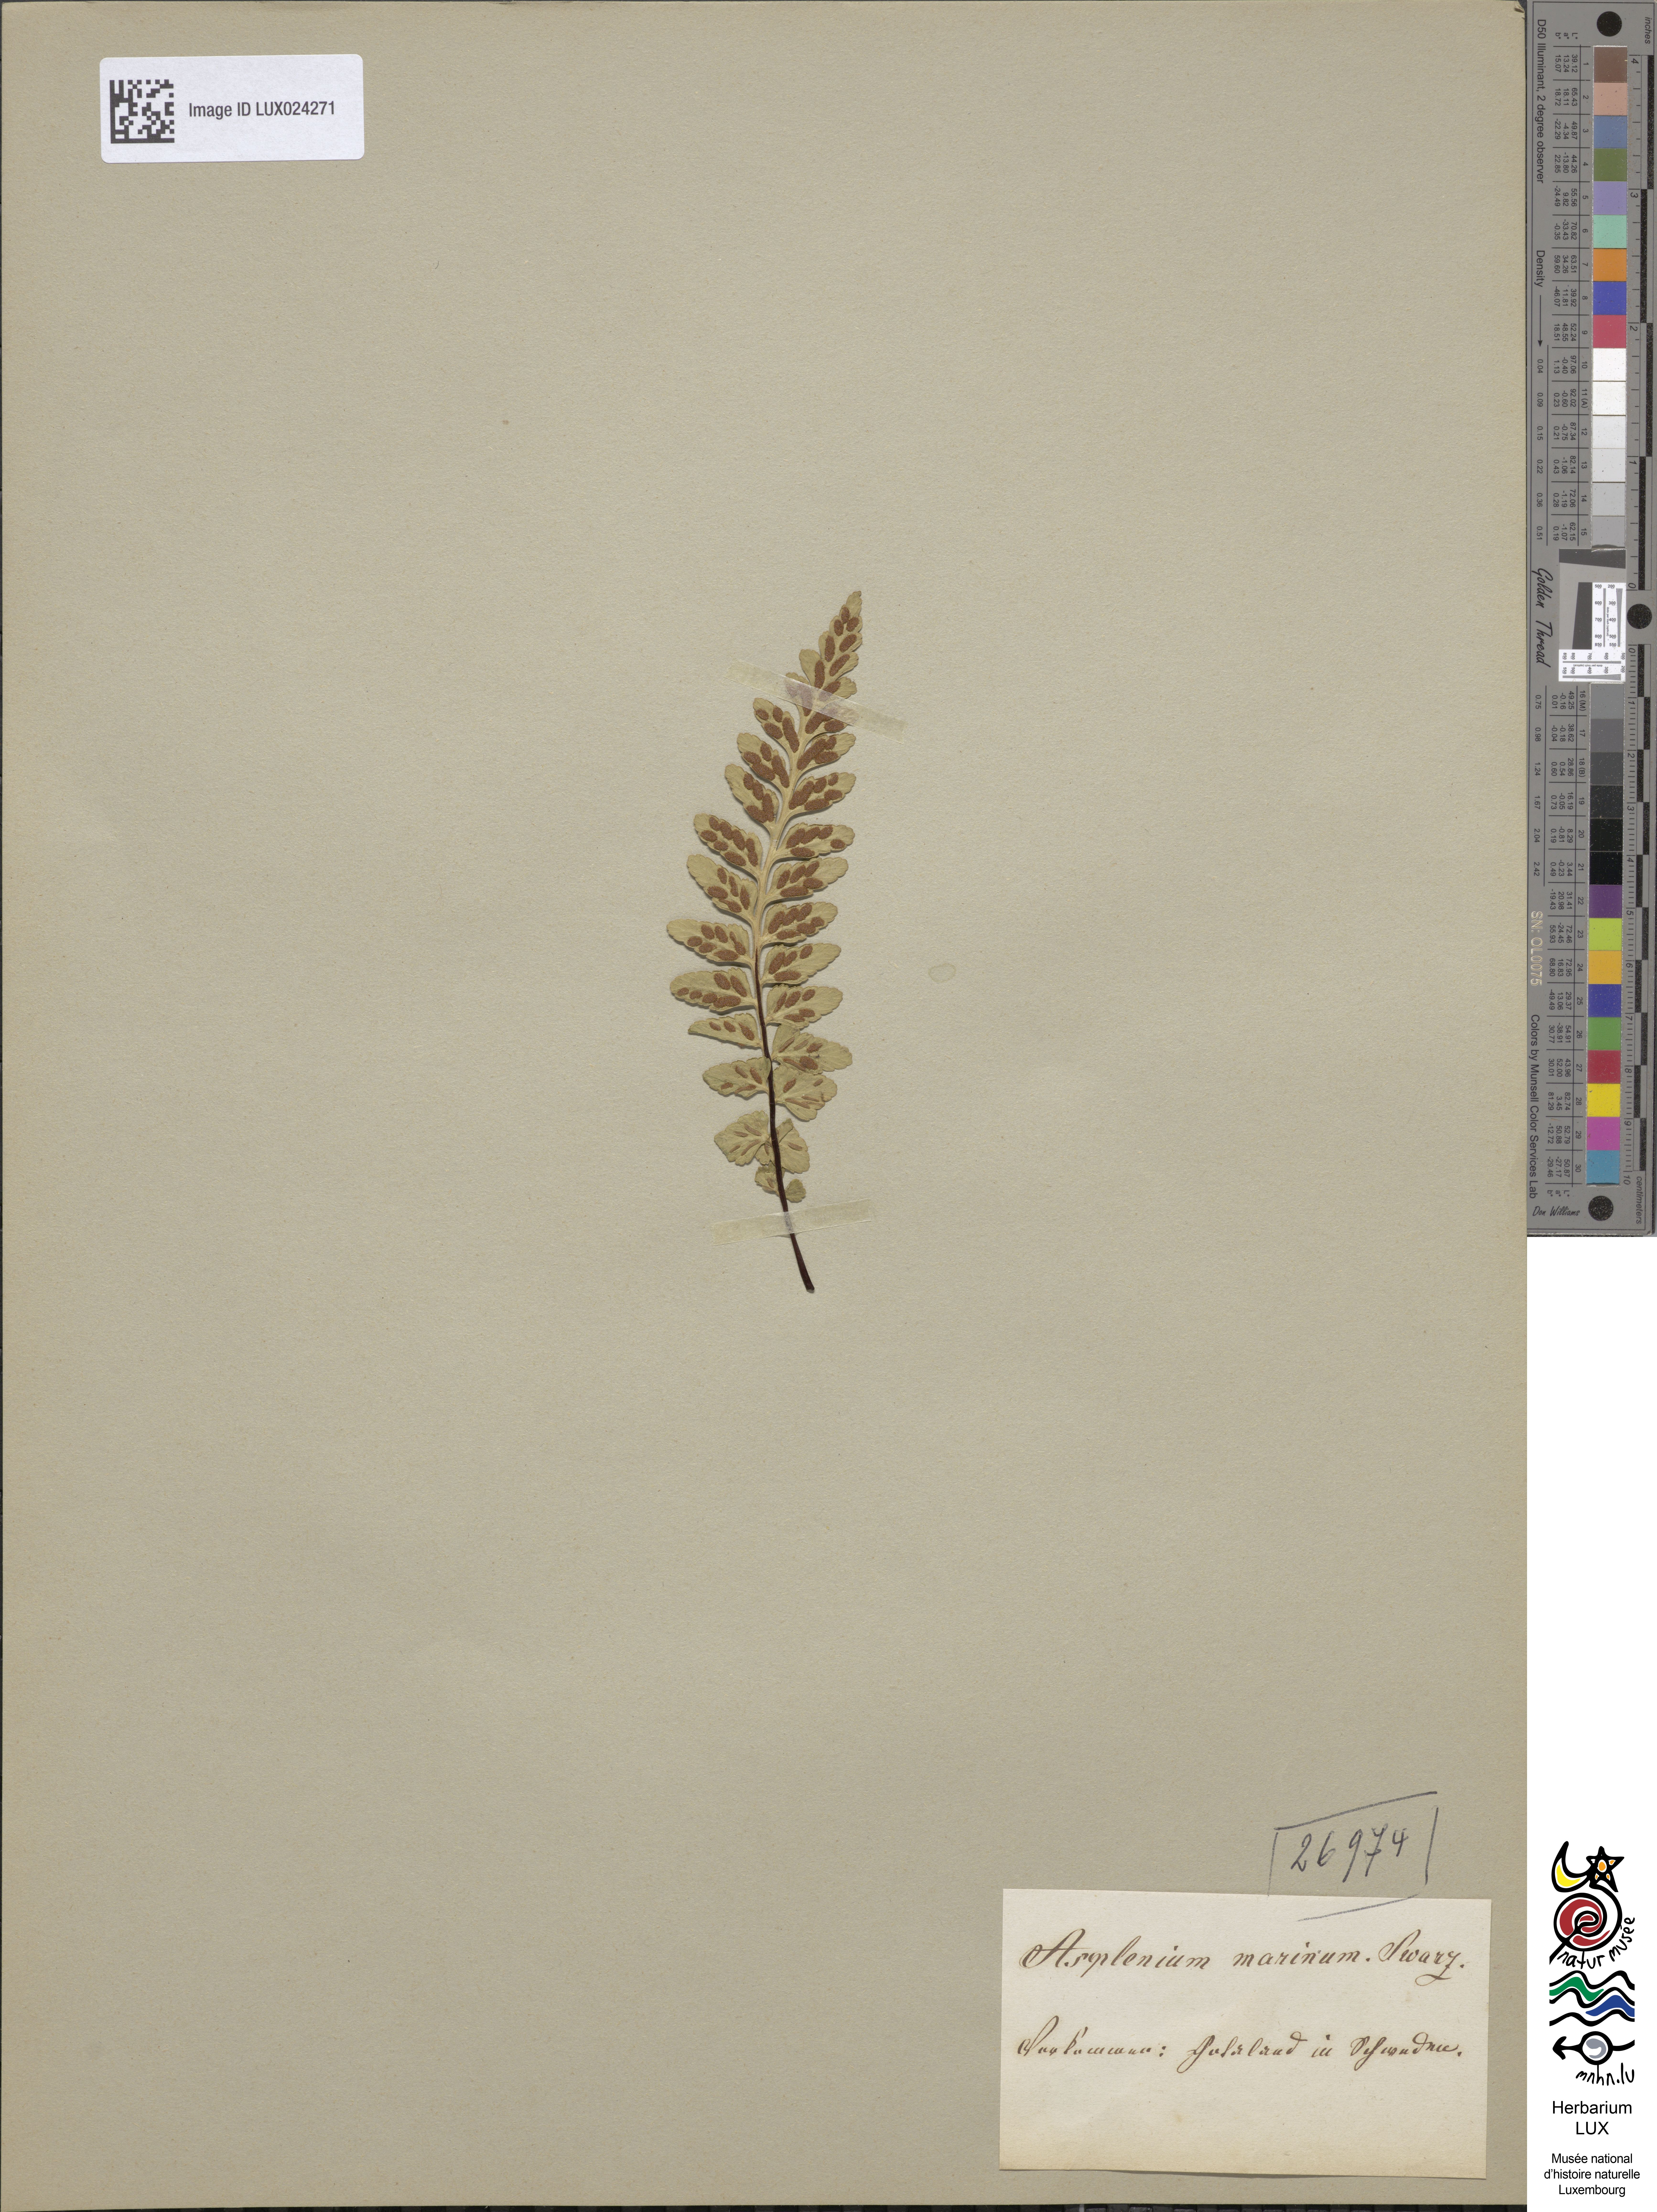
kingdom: Plantae
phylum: Tracheophyta
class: Polypodiopsida
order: Polypodiales
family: Aspleniaceae
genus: Asplenium
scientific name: Asplenium marinum
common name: Sea spleenwort
